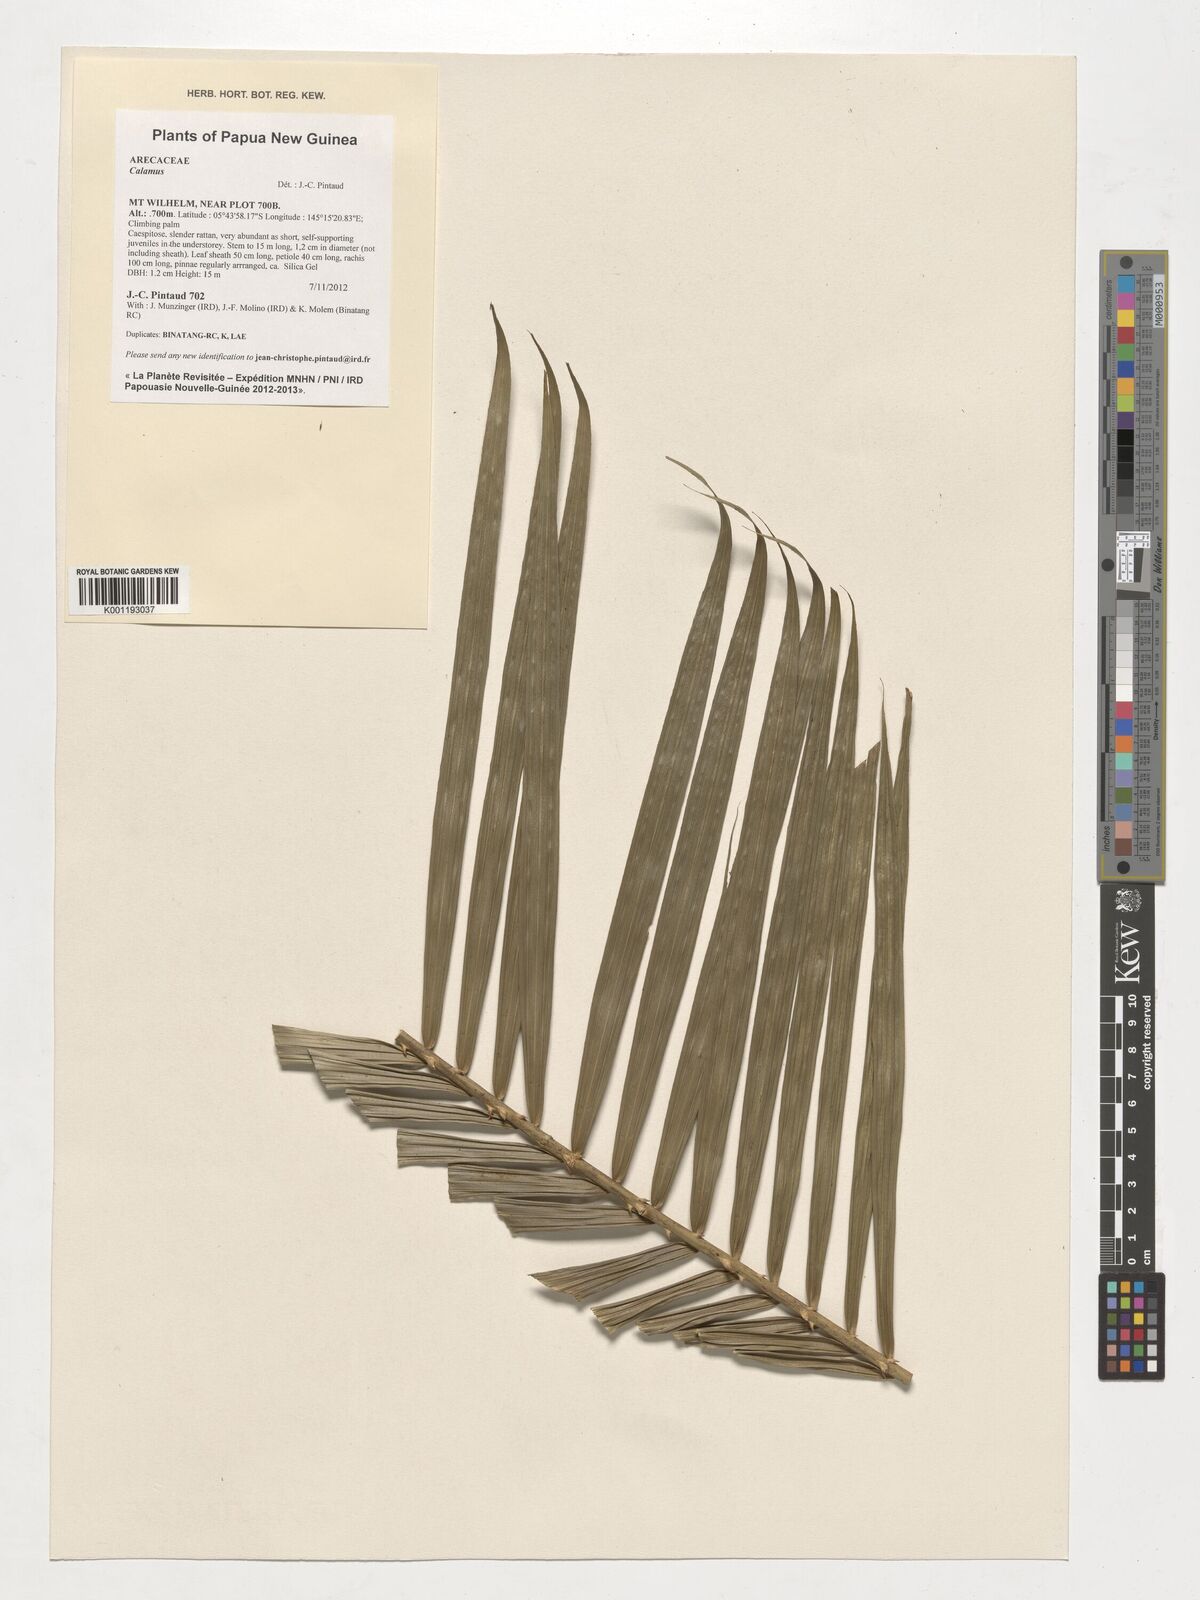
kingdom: Plantae
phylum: Tracheophyta
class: Liliopsida
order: Arecales
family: Arecaceae
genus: Calamus
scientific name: Calamus
